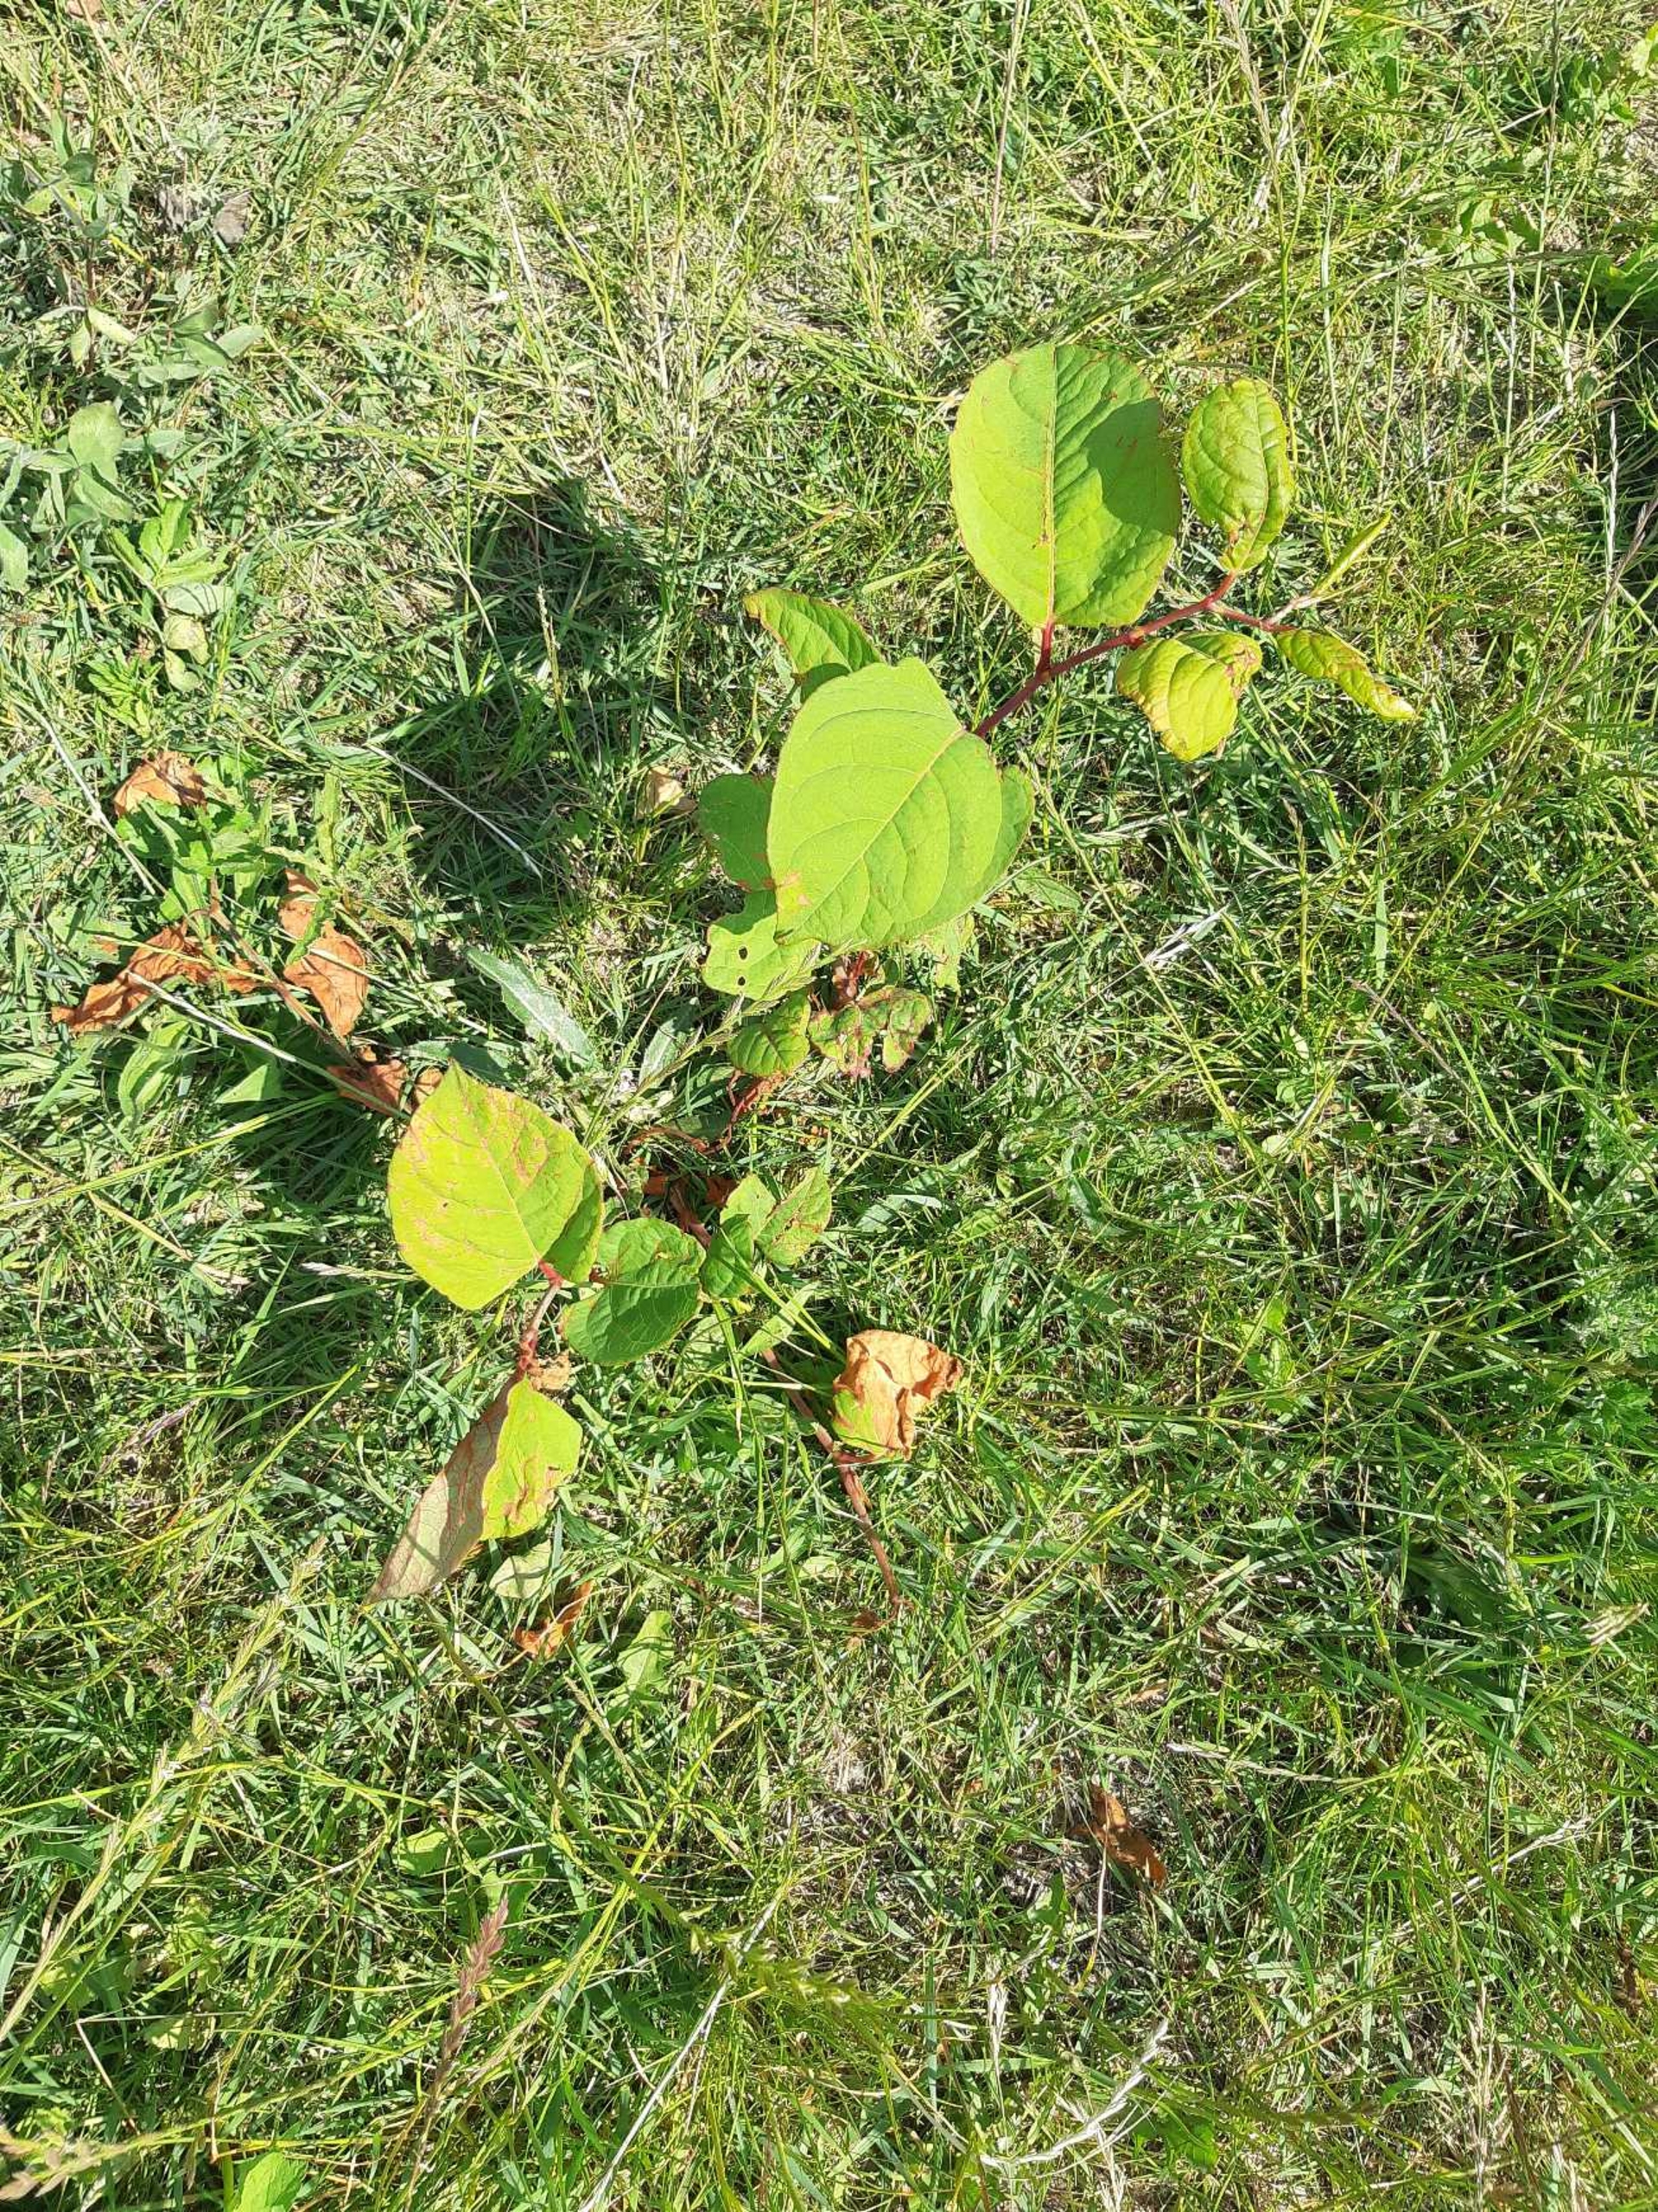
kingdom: Plantae
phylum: Tracheophyta
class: Magnoliopsida
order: Caryophyllales
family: Polygonaceae
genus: Reynoutria
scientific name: Reynoutria japonica
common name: Japan-pileurt
